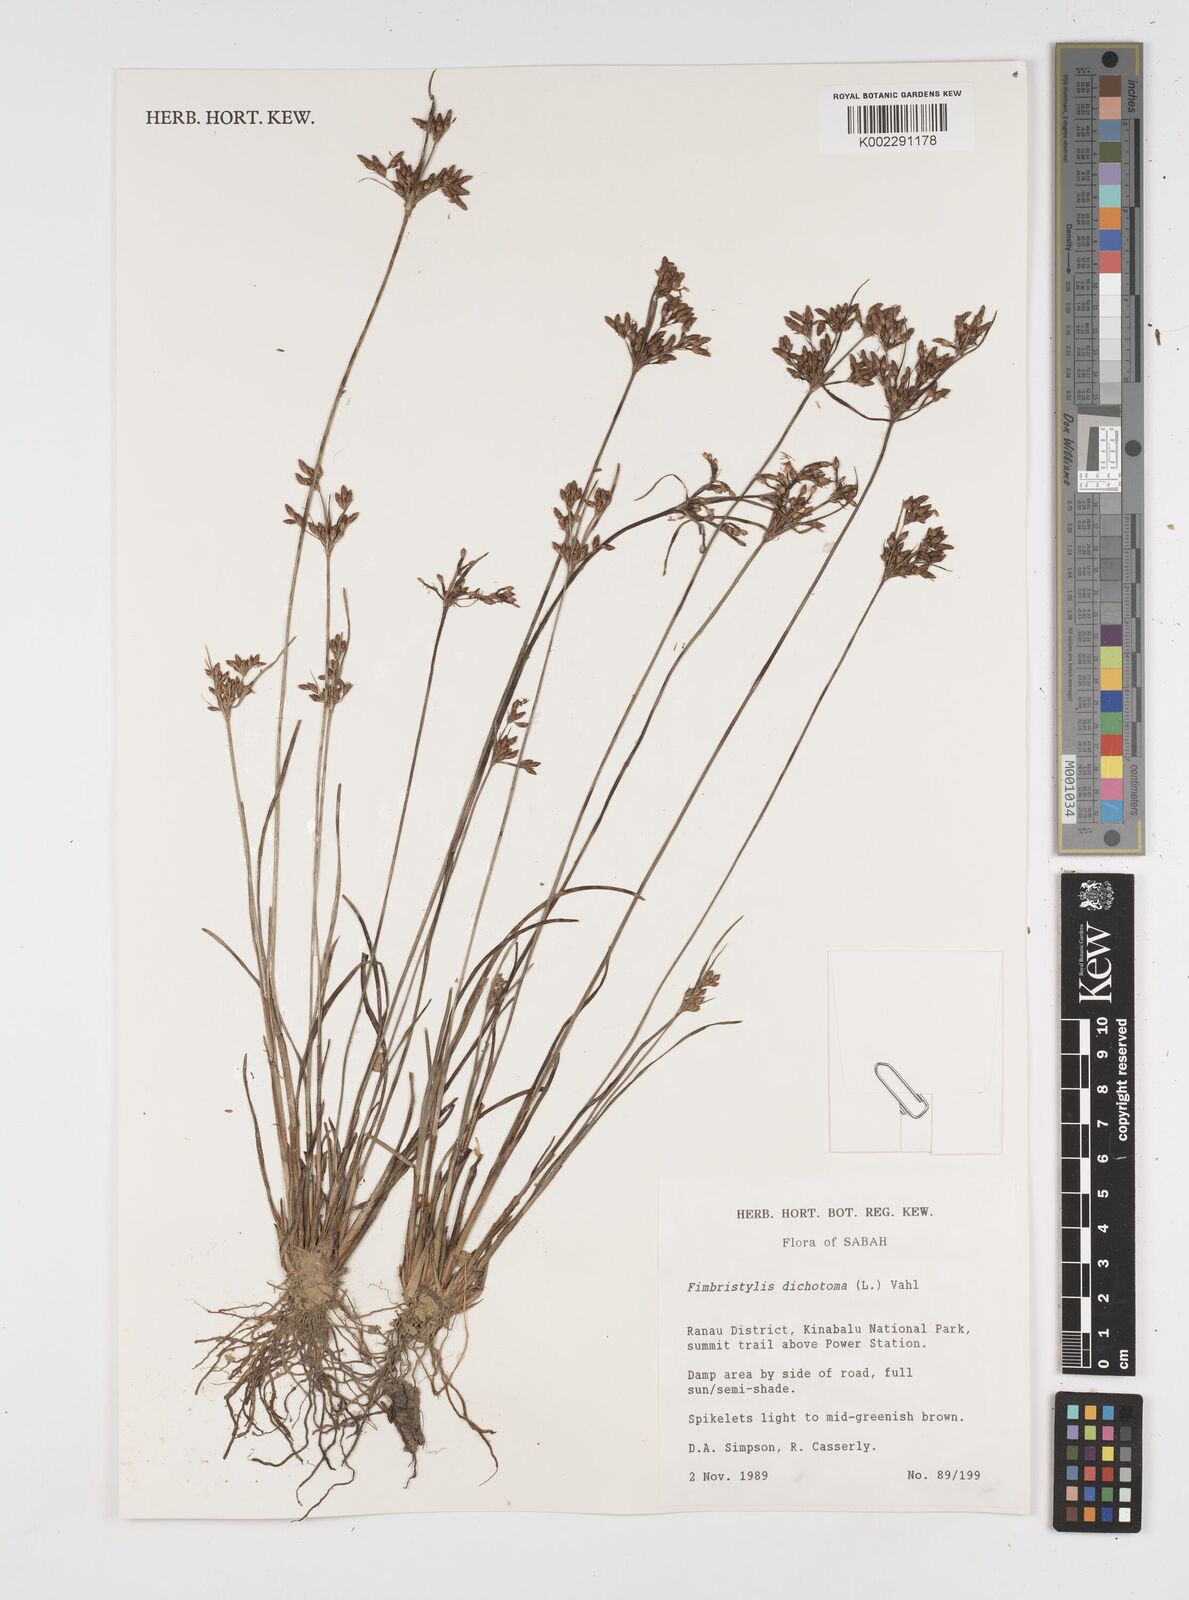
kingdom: Plantae
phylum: Tracheophyta
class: Liliopsida
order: Poales
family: Cyperaceae
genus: Fimbristylis
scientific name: Fimbristylis dichotoma
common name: Forked fimbry
